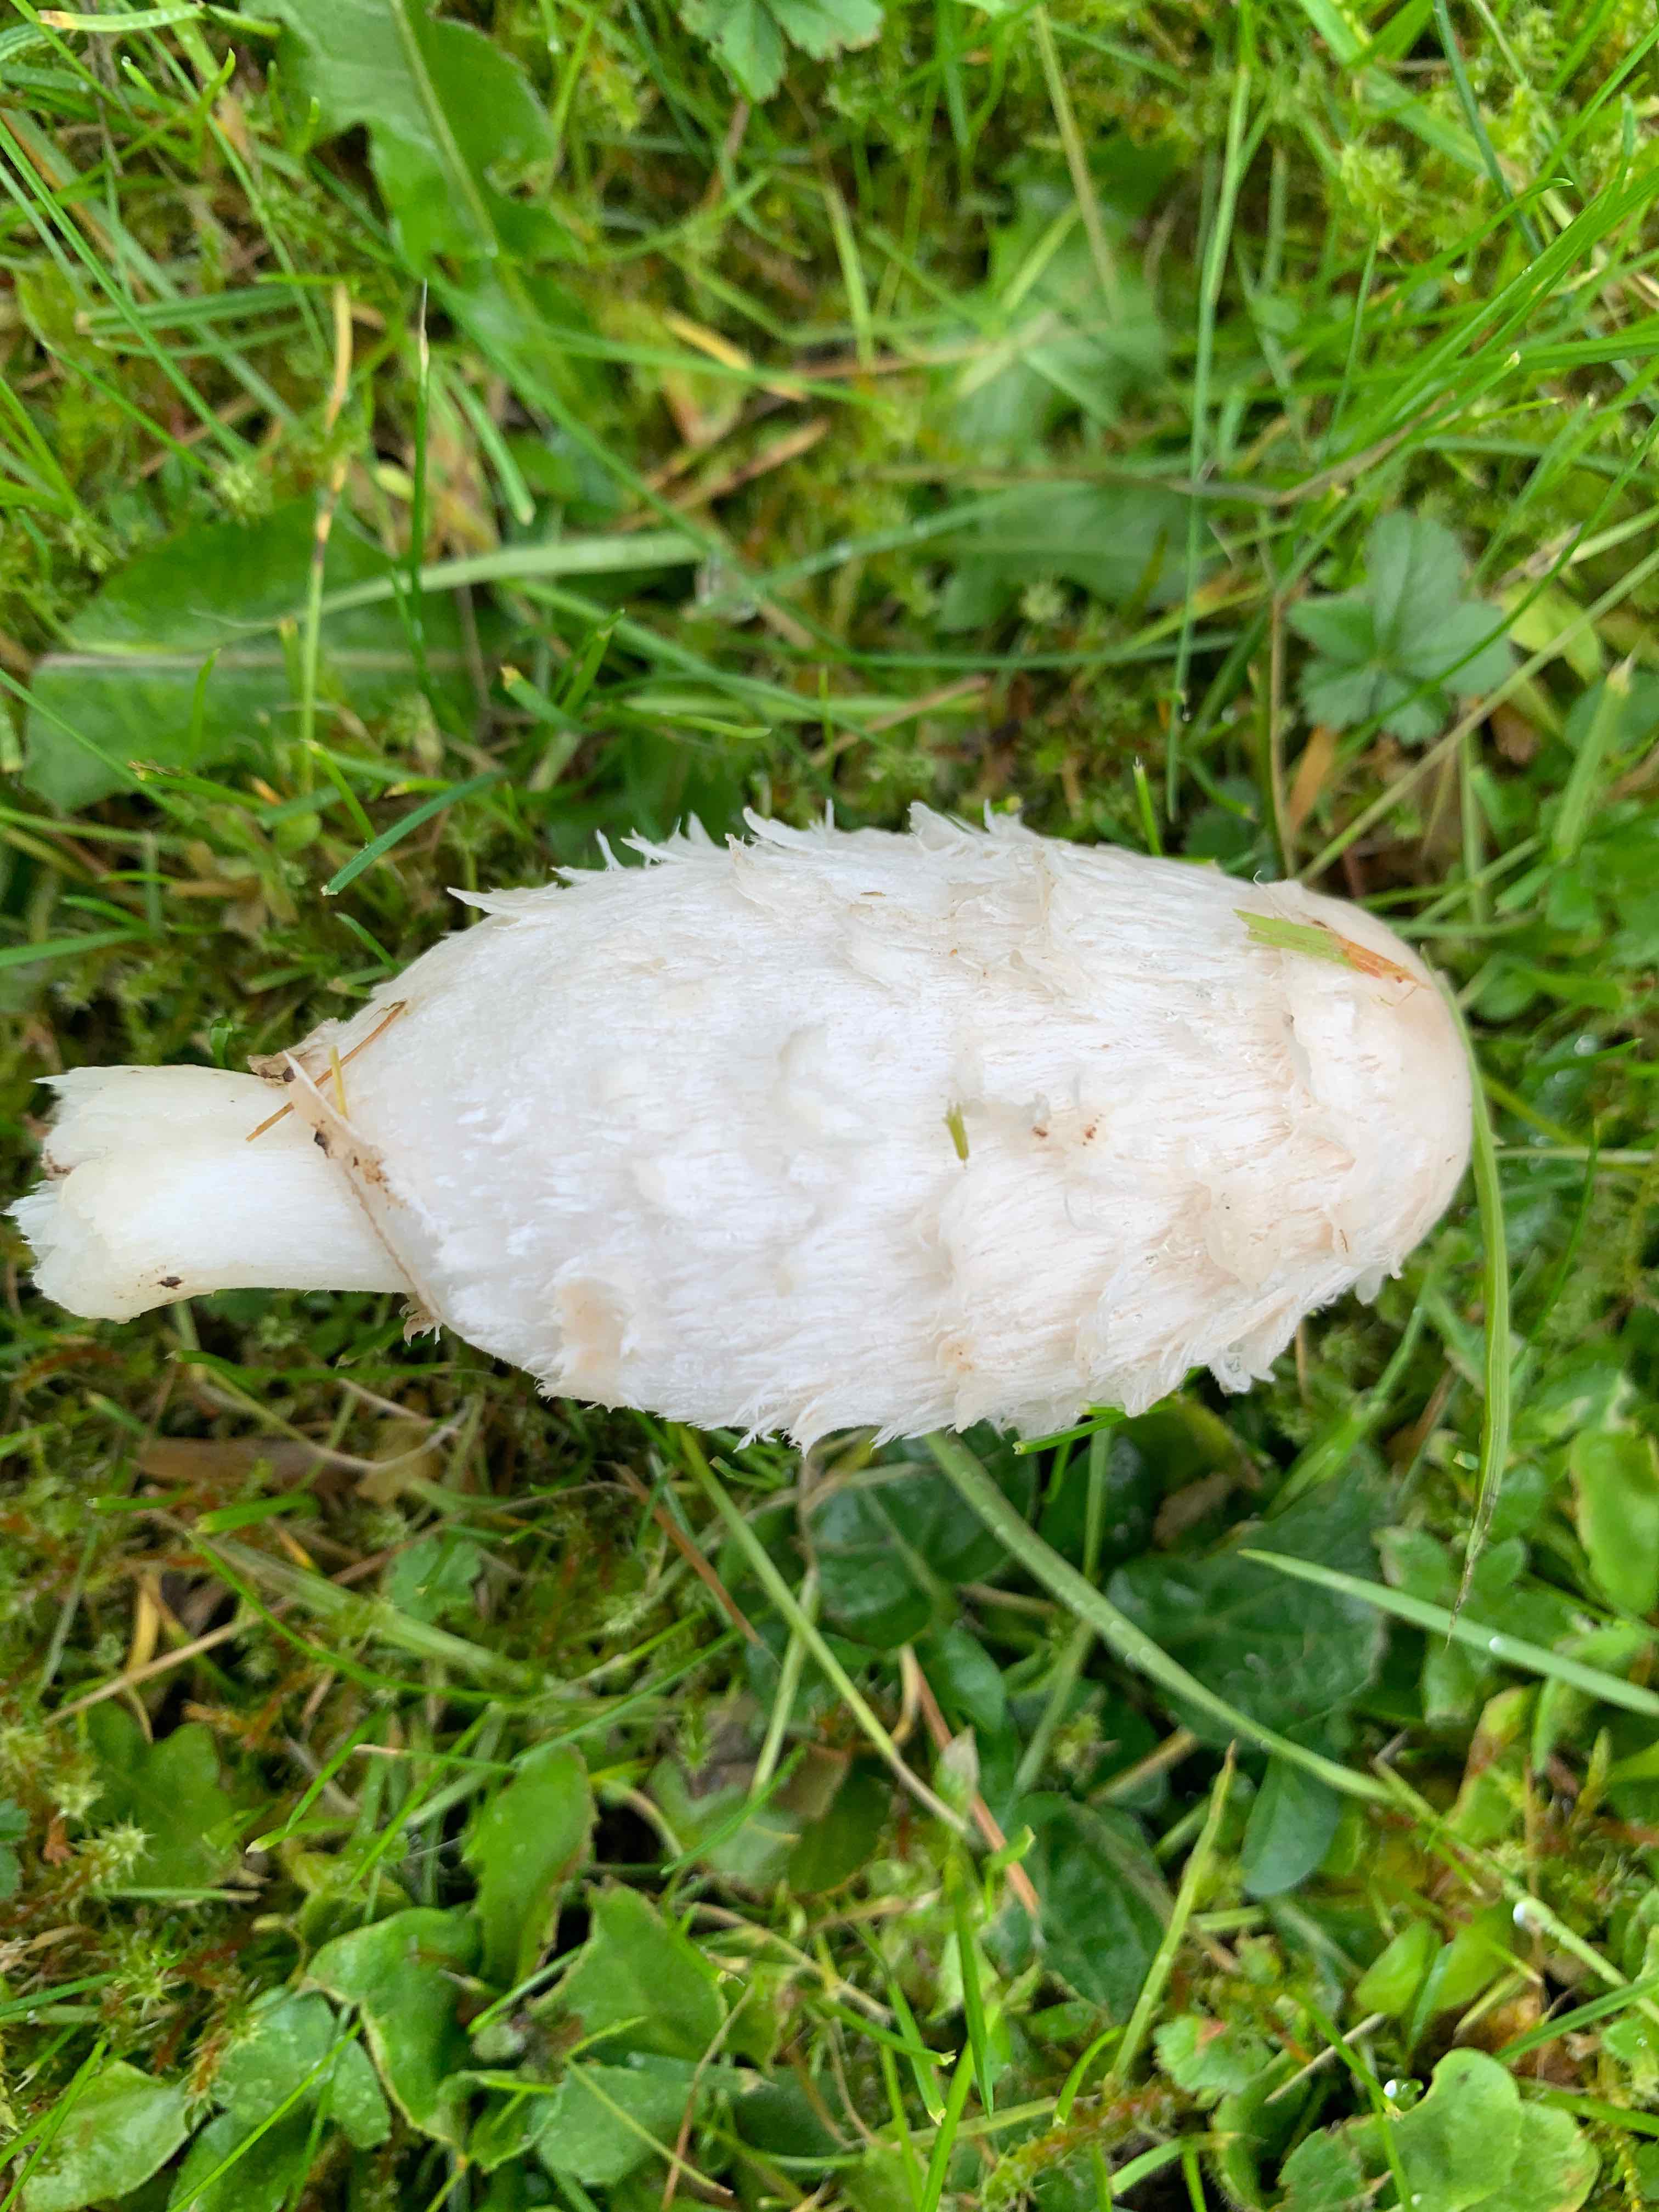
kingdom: Fungi
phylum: Basidiomycota
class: Agaricomycetes
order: Agaricales
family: Agaricaceae
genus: Coprinus
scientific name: Coprinus comatus
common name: stor parykhat
